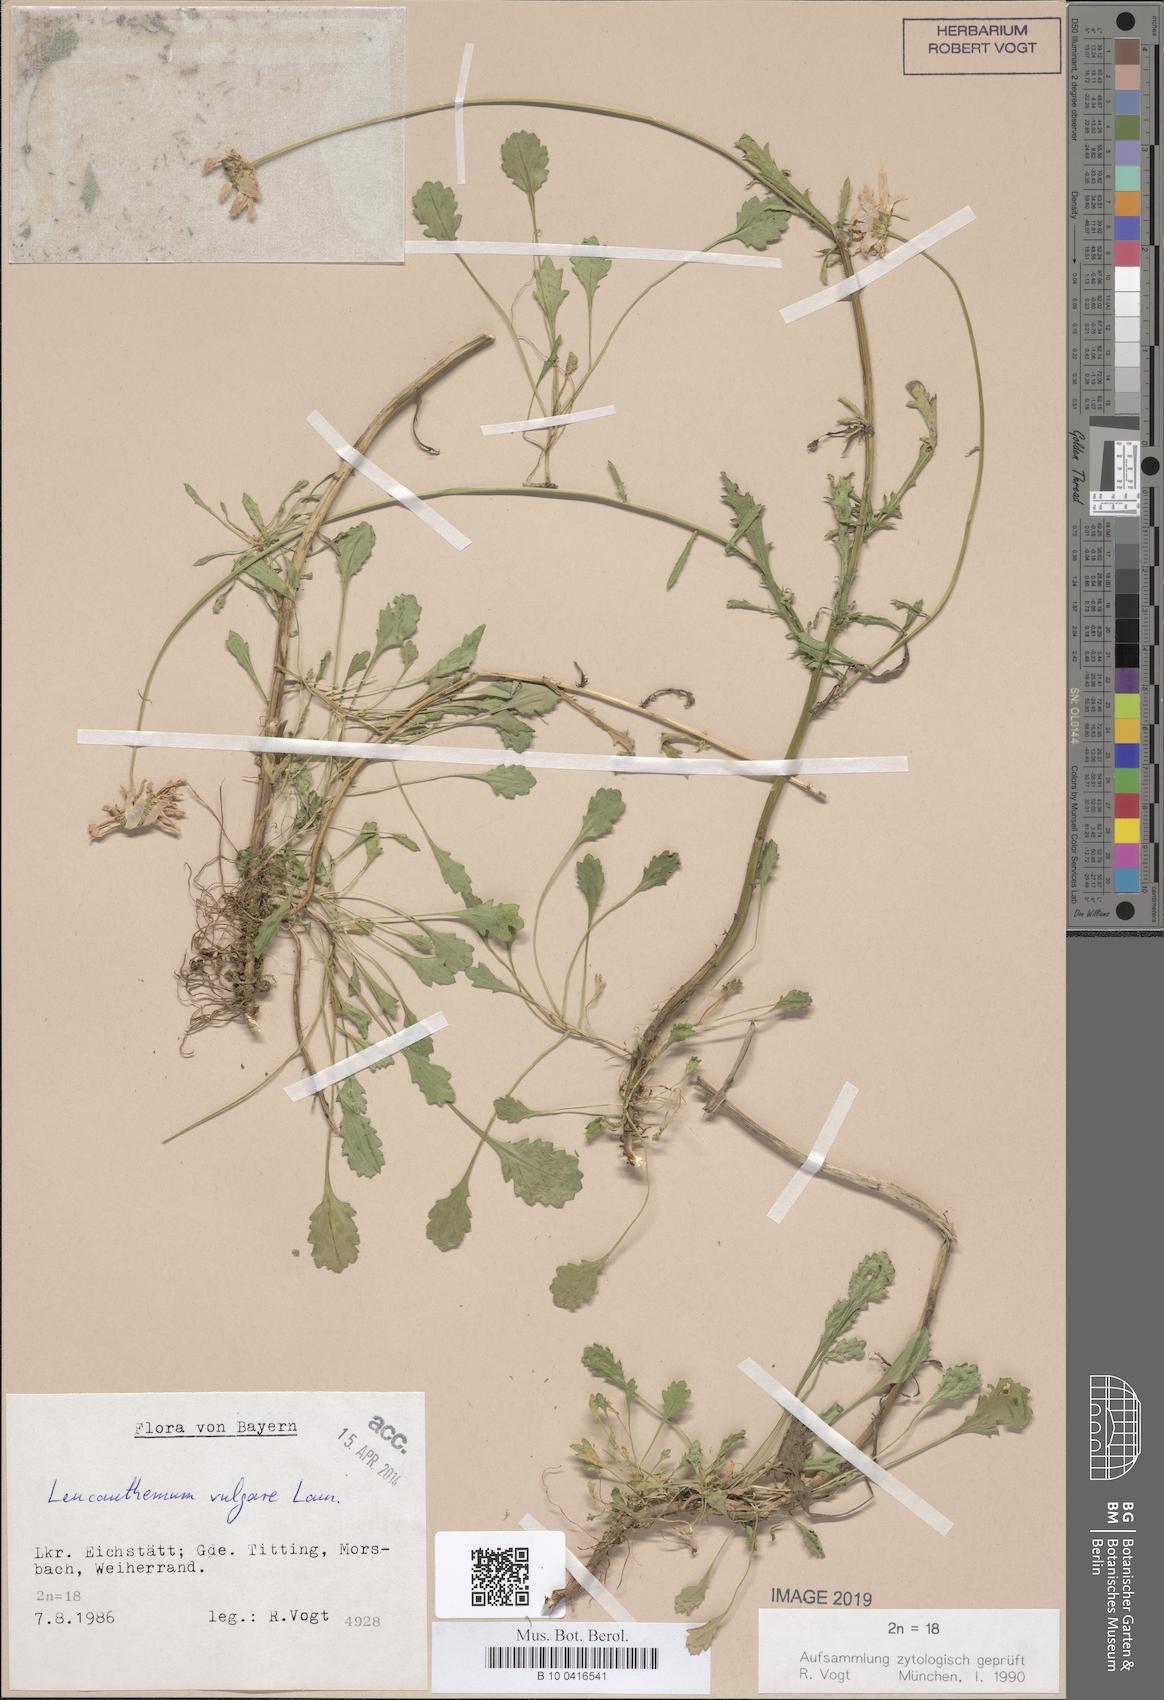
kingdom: Plantae
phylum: Tracheophyta
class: Magnoliopsida
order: Asterales
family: Asteraceae
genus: Leucanthemum
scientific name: Leucanthemum vulgare
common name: Oxeye daisy
